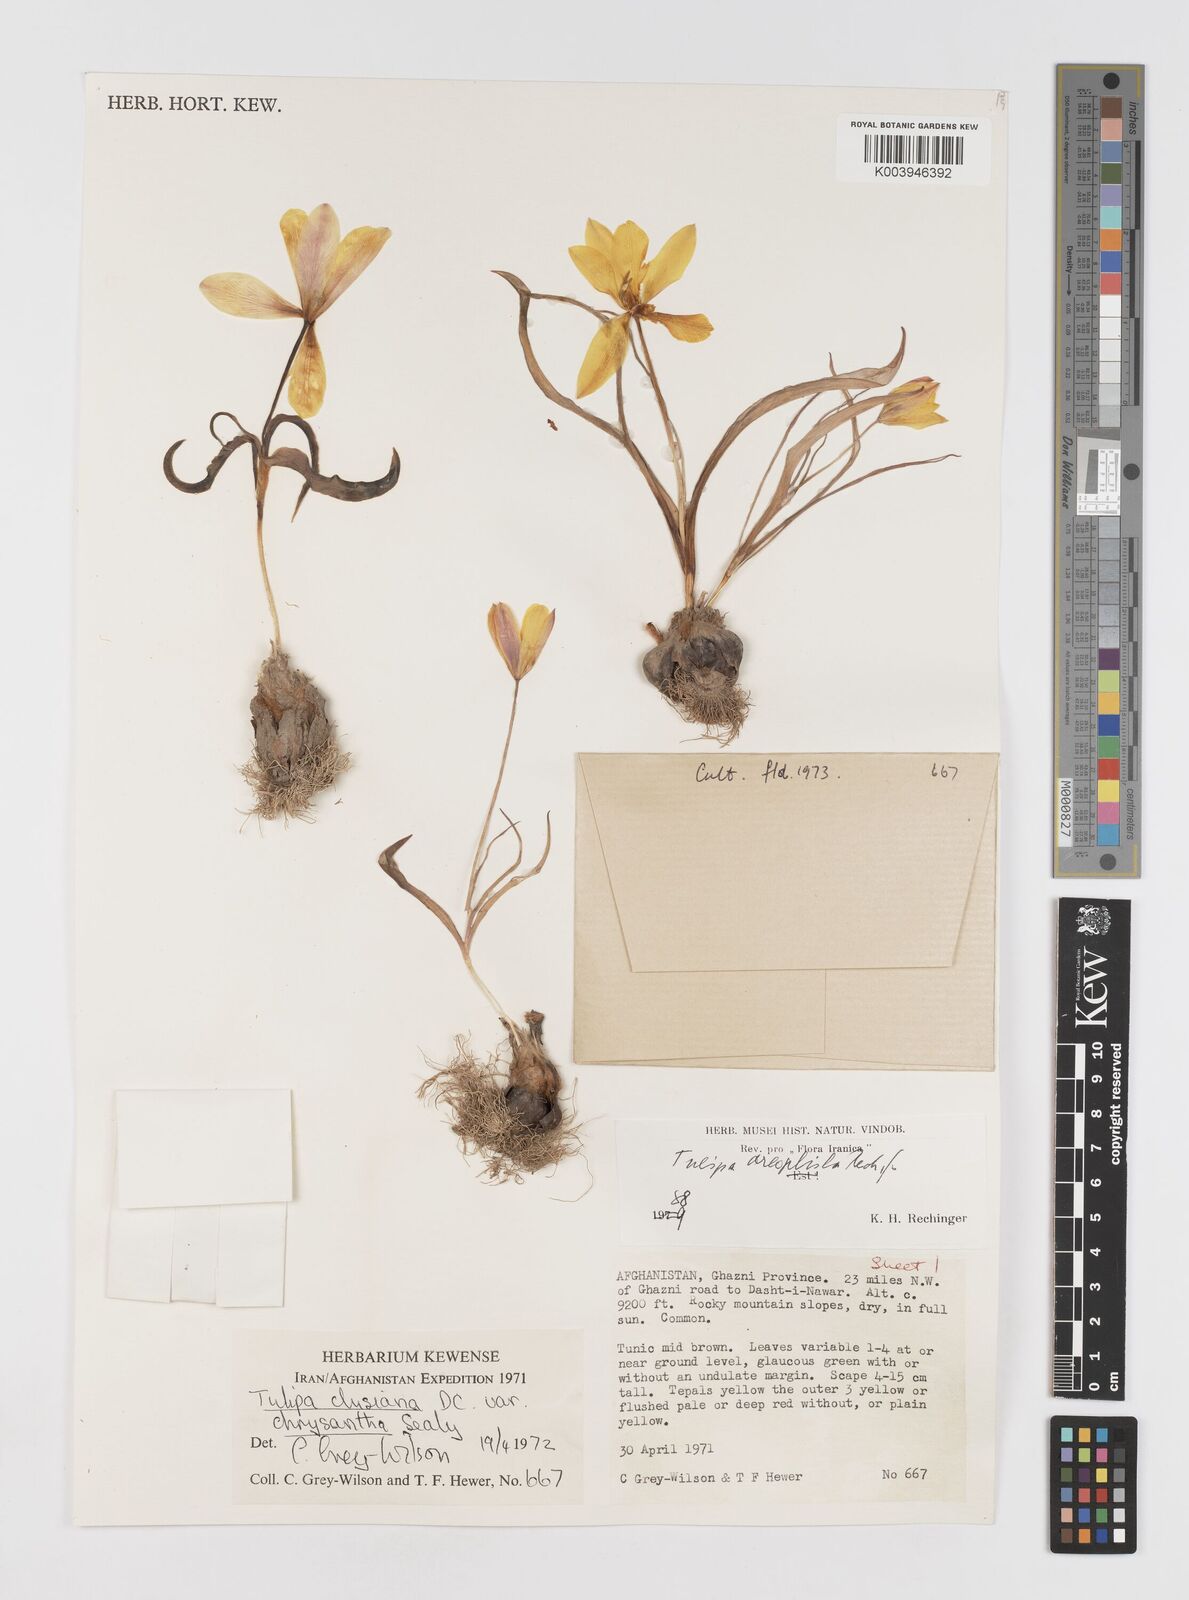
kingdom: Plantae
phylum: Tracheophyta
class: Liliopsida
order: Liliales
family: Liliaceae
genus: Tulipa
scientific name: Tulipa clusiana
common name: Lady tulip
